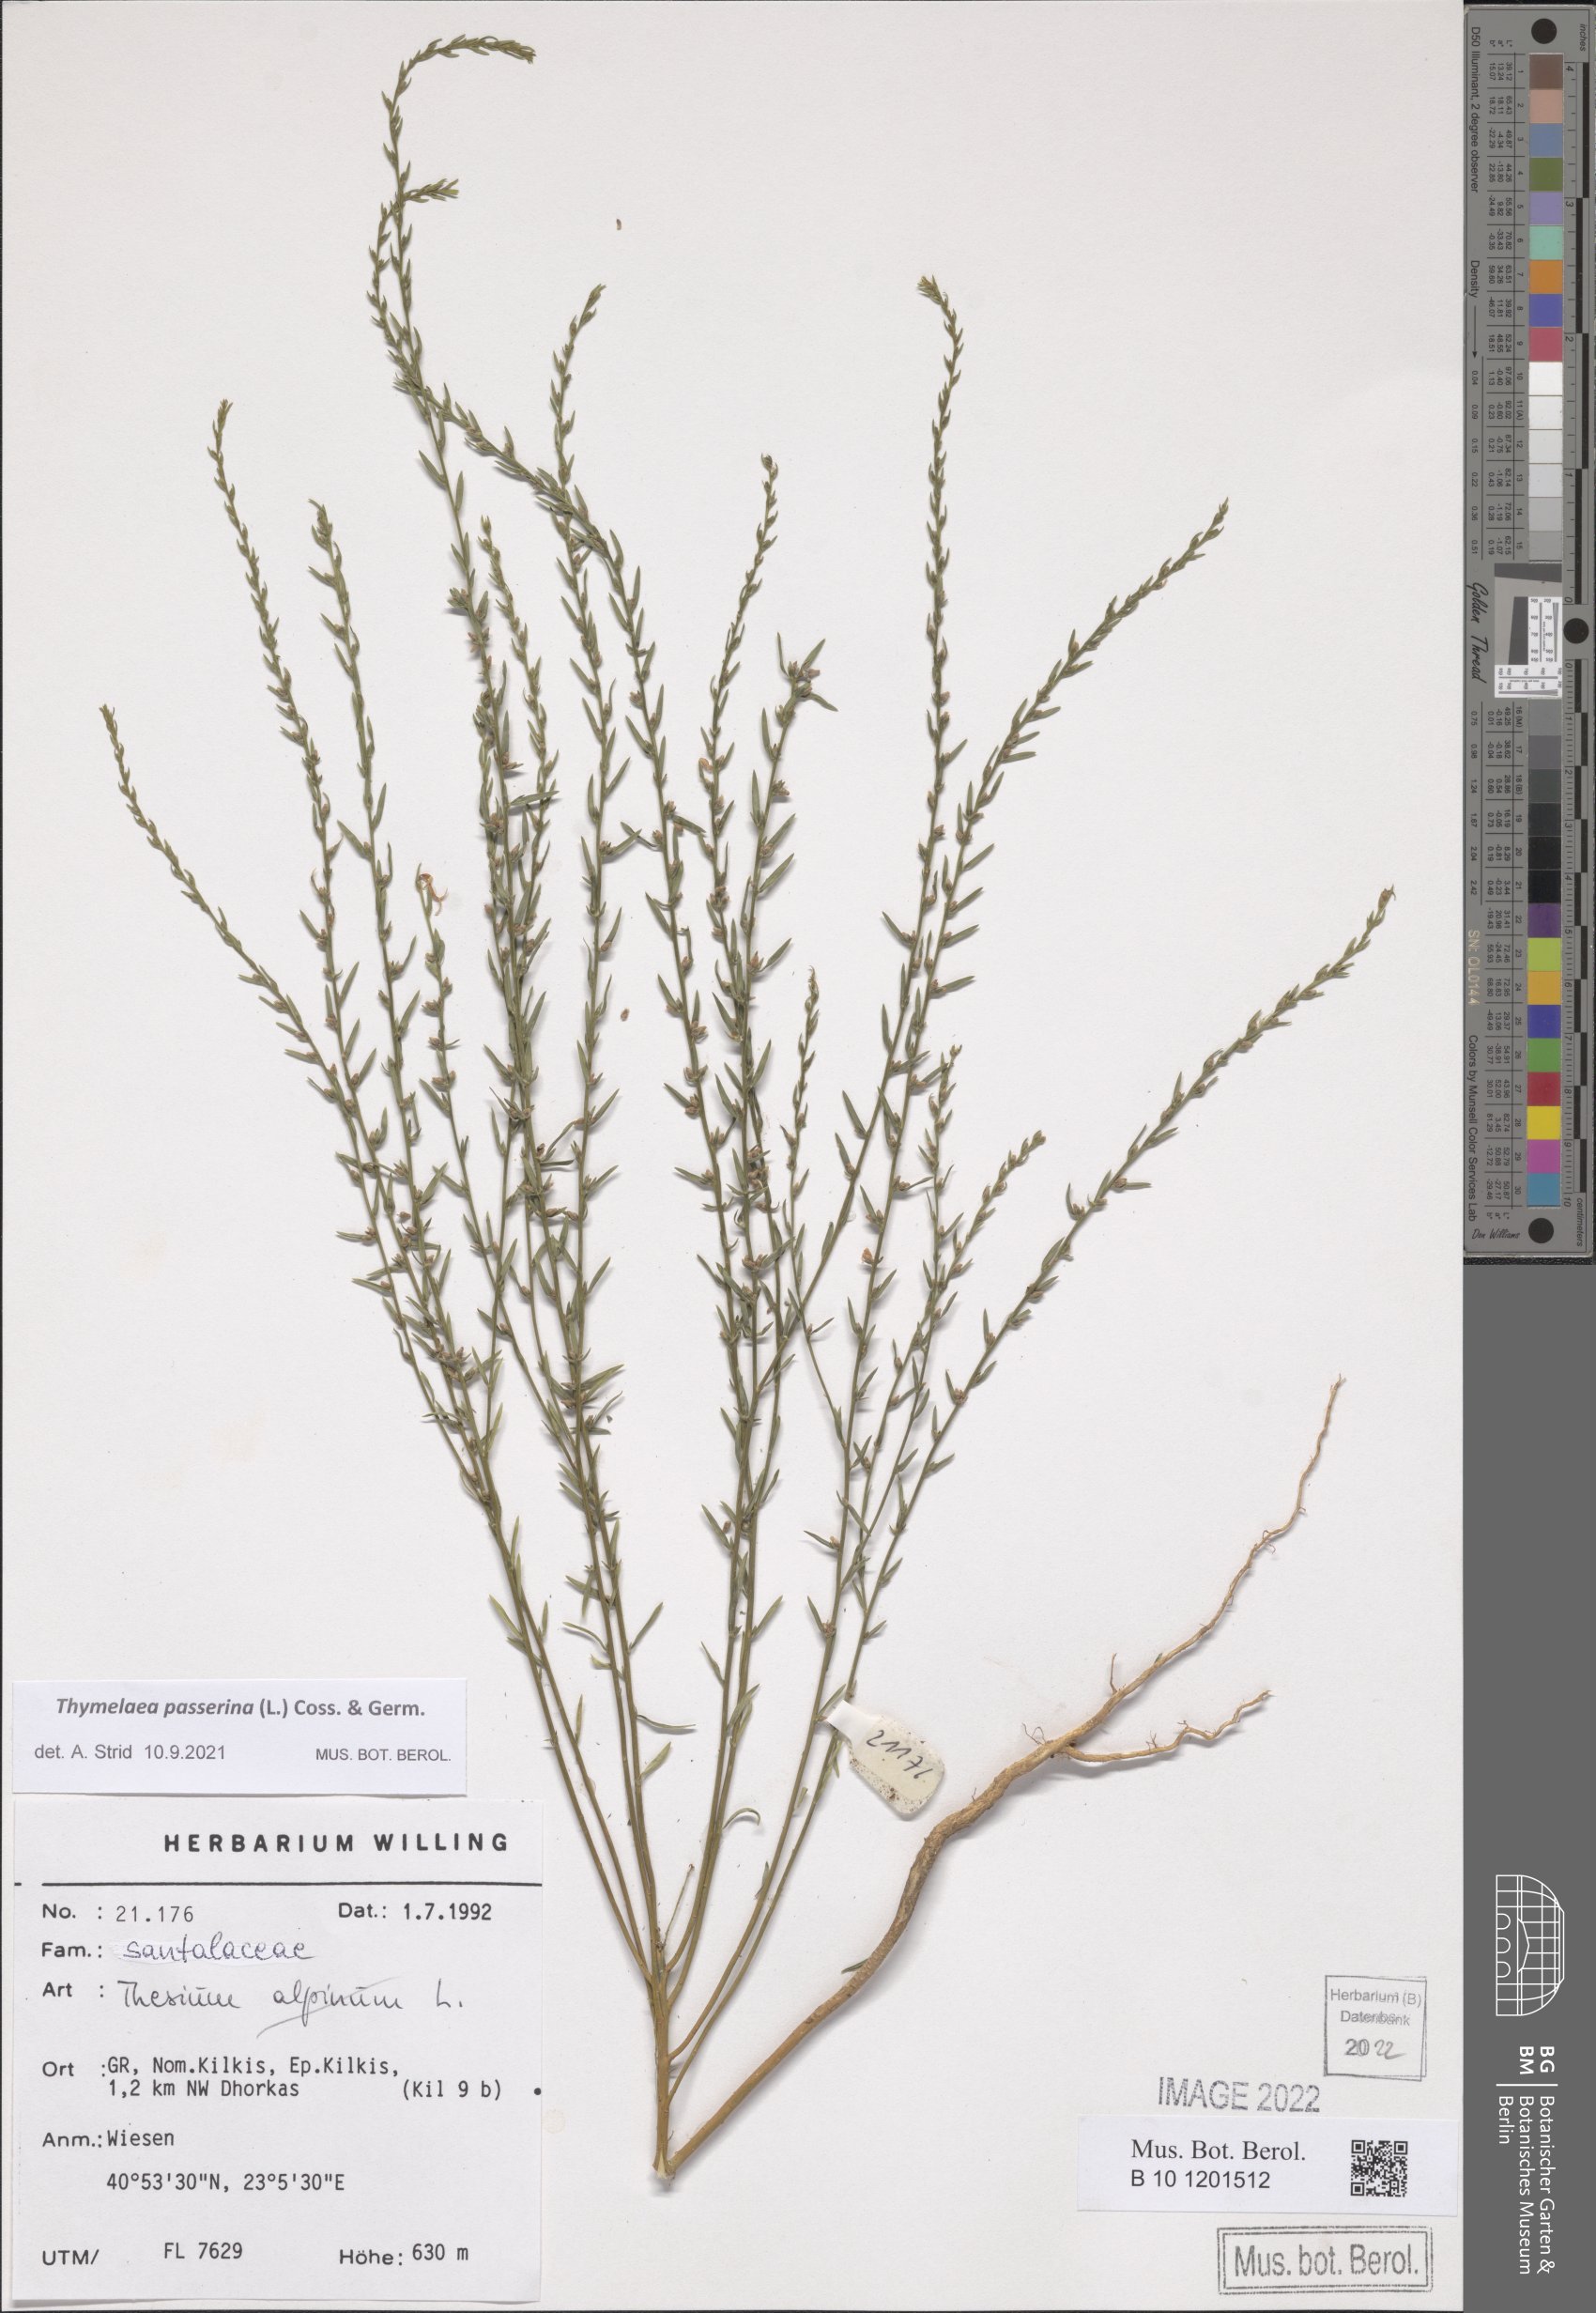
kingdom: Plantae
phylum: Tracheophyta
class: Magnoliopsida
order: Malvales
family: Thymelaeaceae
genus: Thymelaea
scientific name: Thymelaea passerina
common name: Annual thymelaea
